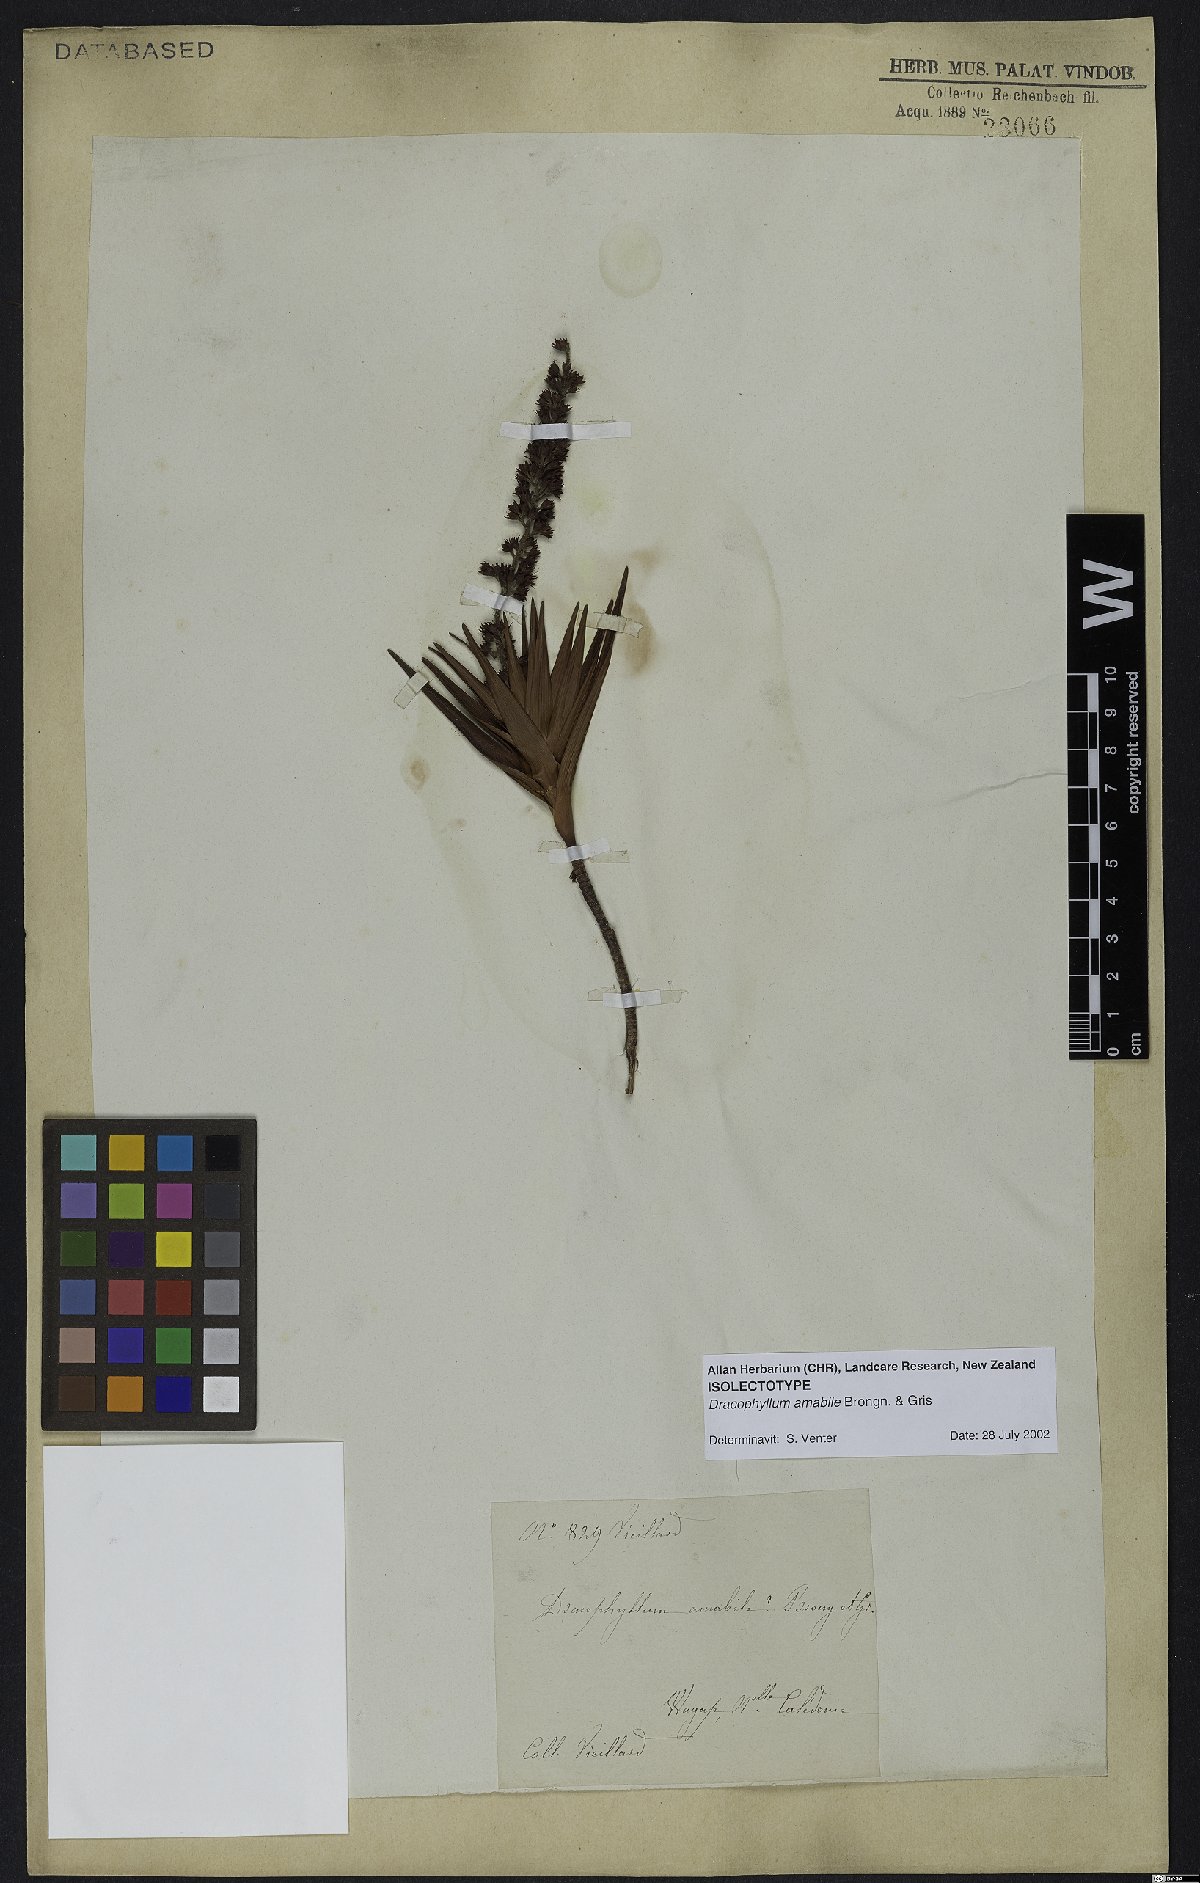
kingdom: Plantae
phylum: Tracheophyta
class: Magnoliopsida
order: Ericales
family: Ericaceae
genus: Dracophyllum
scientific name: Dracophyllum ramosum
